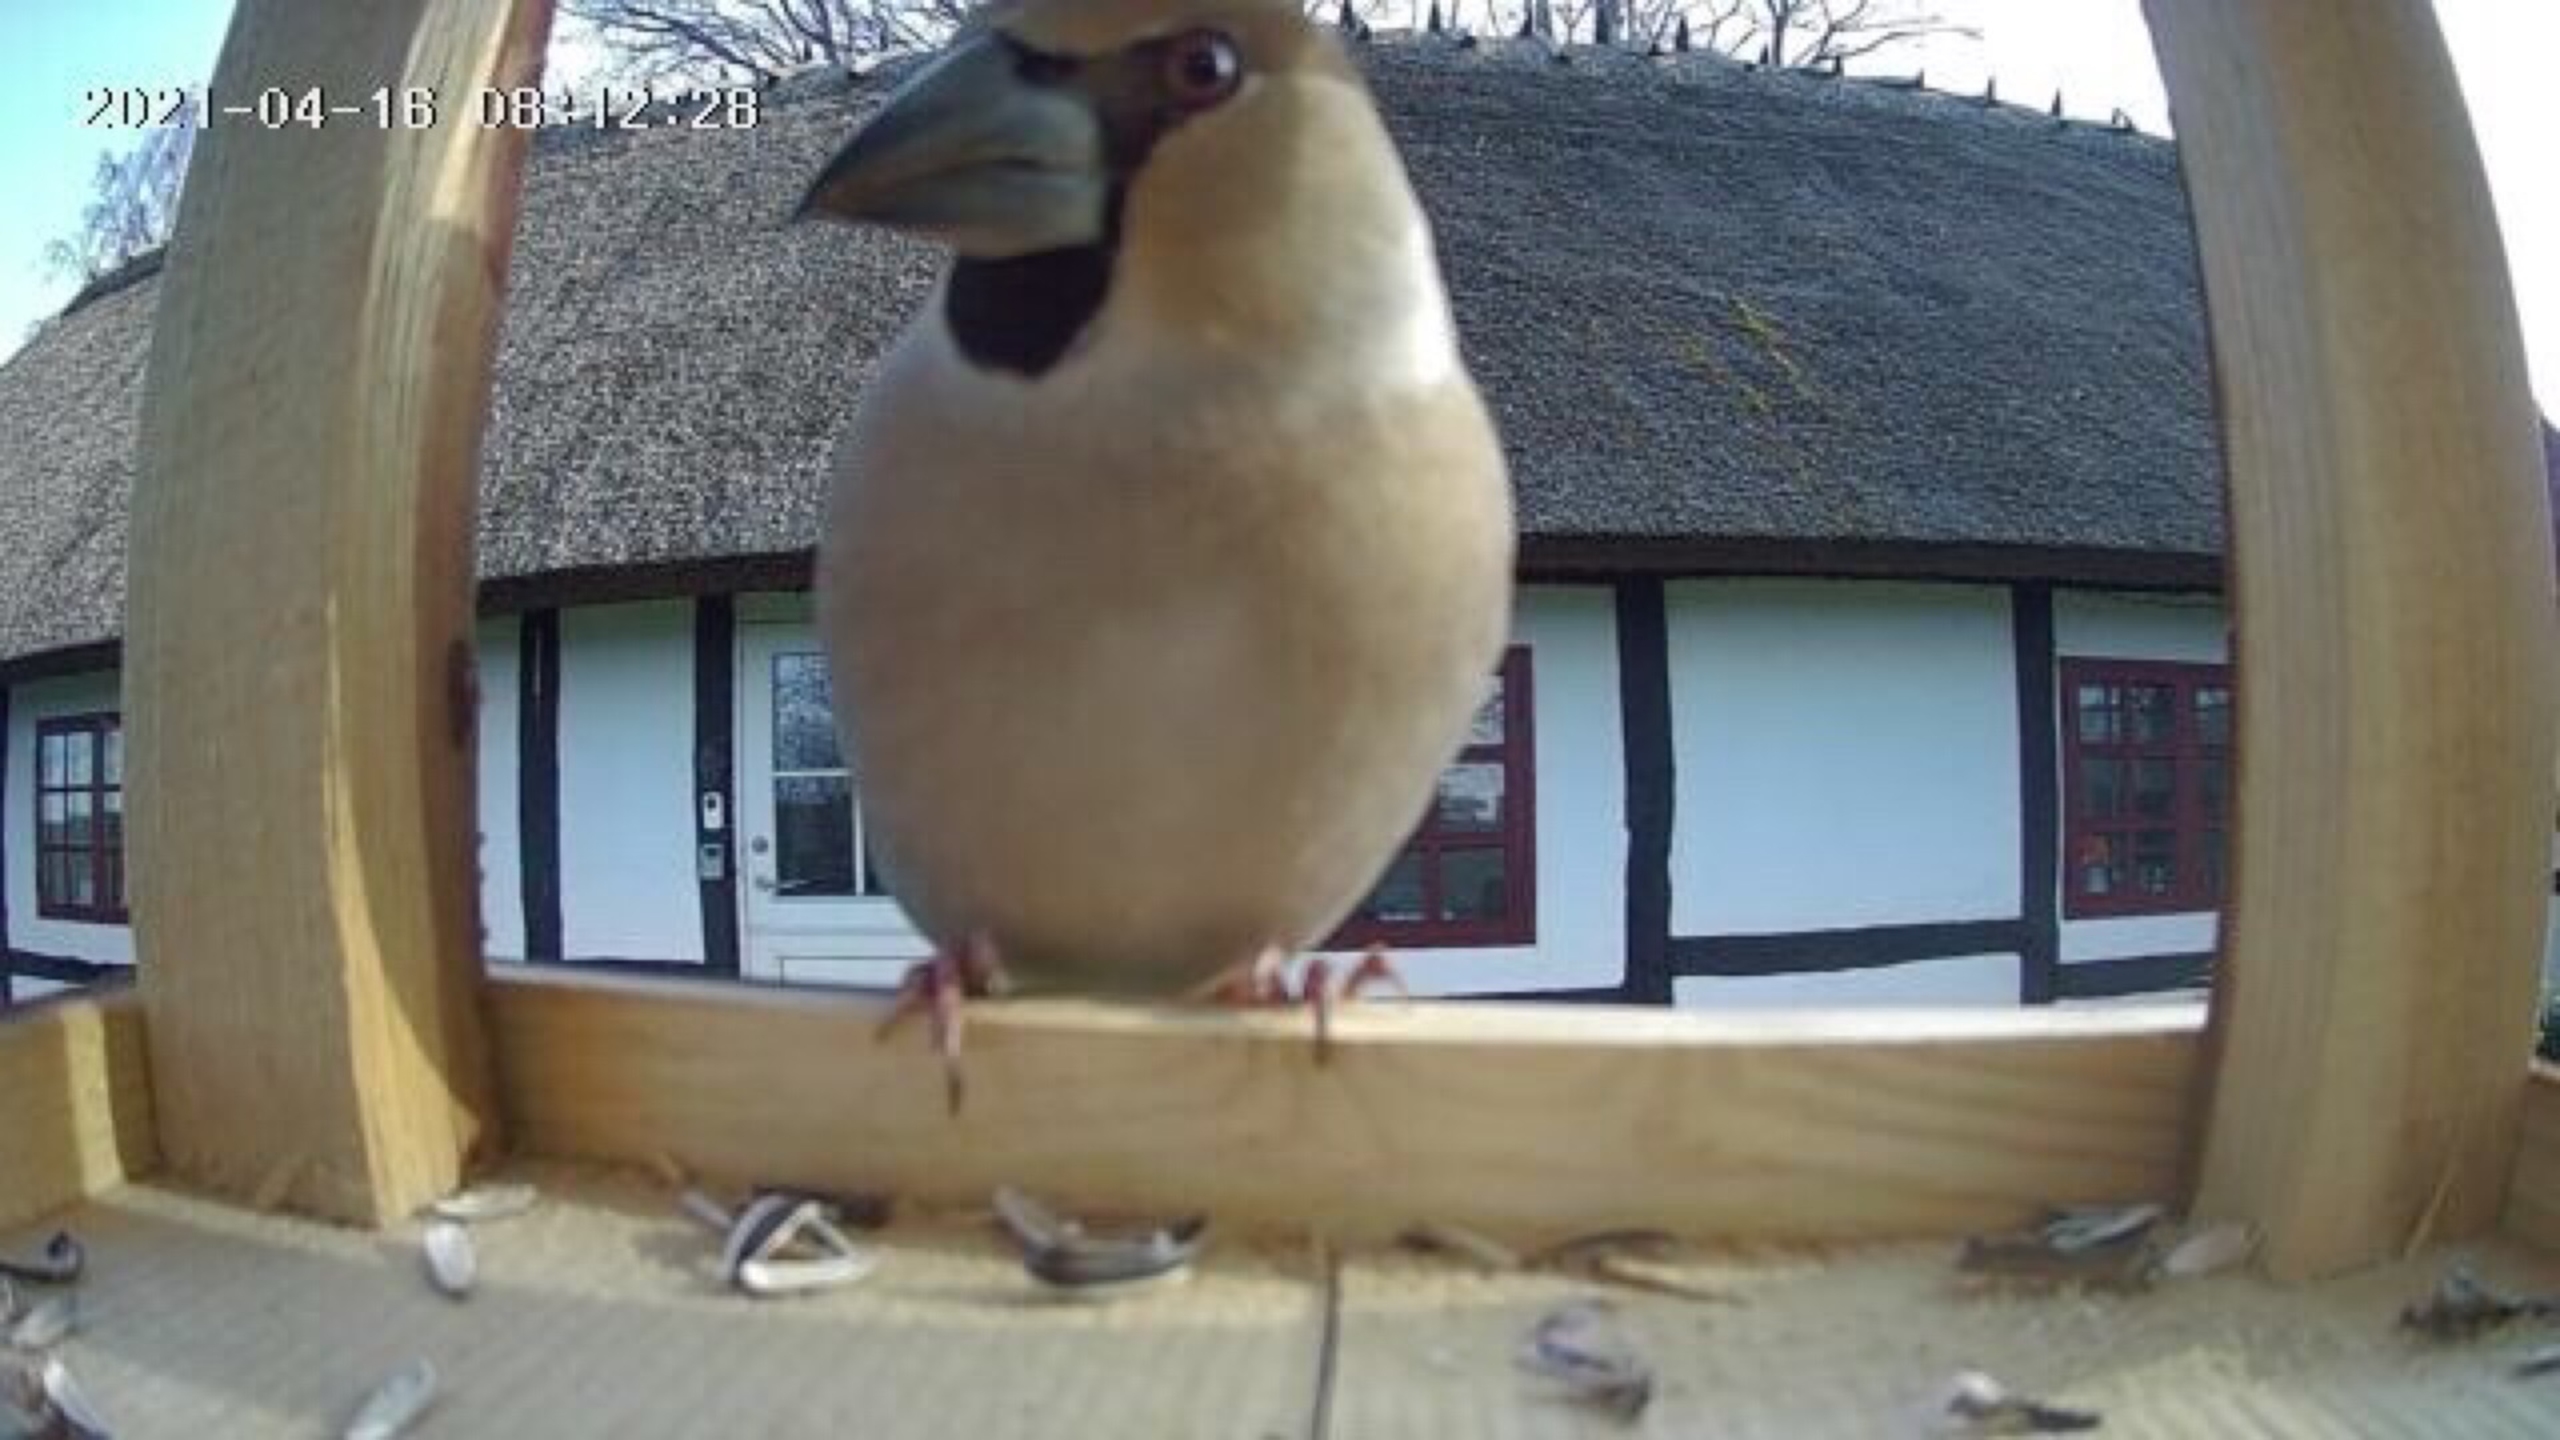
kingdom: Animalia
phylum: Chordata
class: Aves
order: Passeriformes
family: Fringillidae
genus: Coccothraustes
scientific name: Coccothraustes coccothraustes
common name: Kernebider
